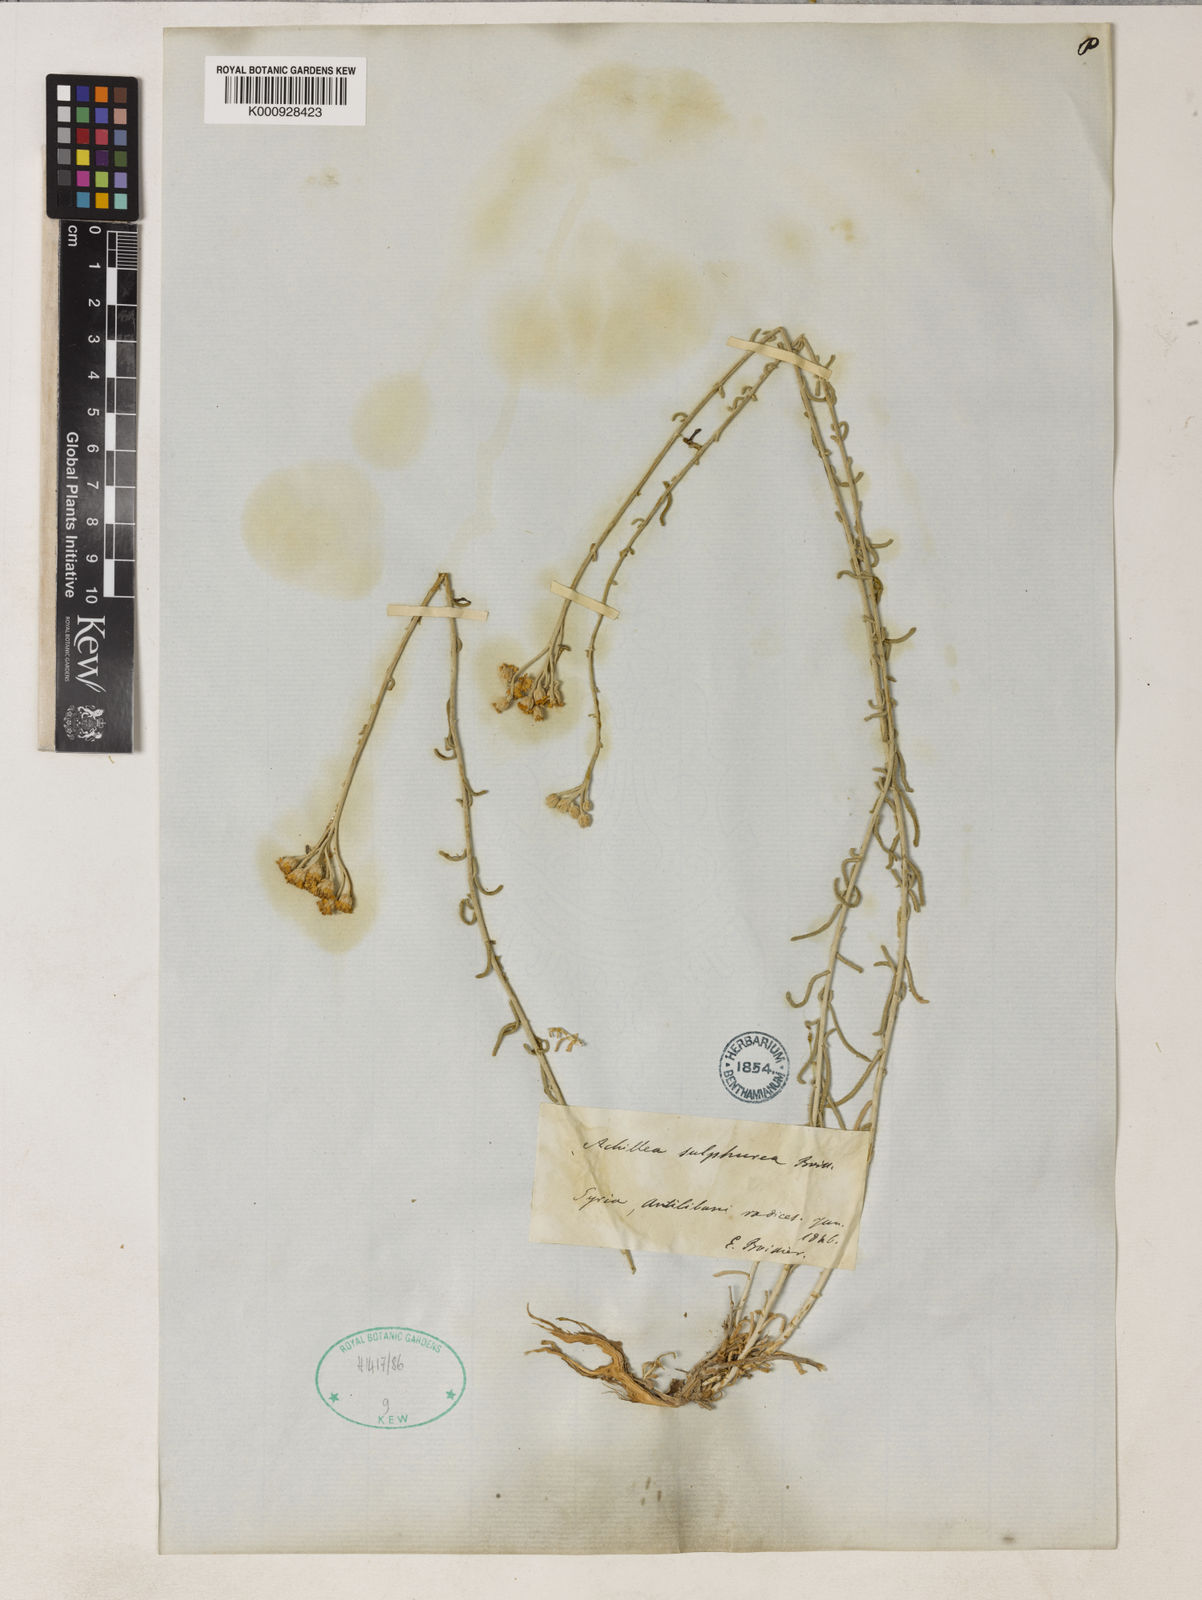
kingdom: Plantae
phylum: Tracheophyta
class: Magnoliopsida
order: Asterales
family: Asteraceae
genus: Achillea
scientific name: Achillea falcata
